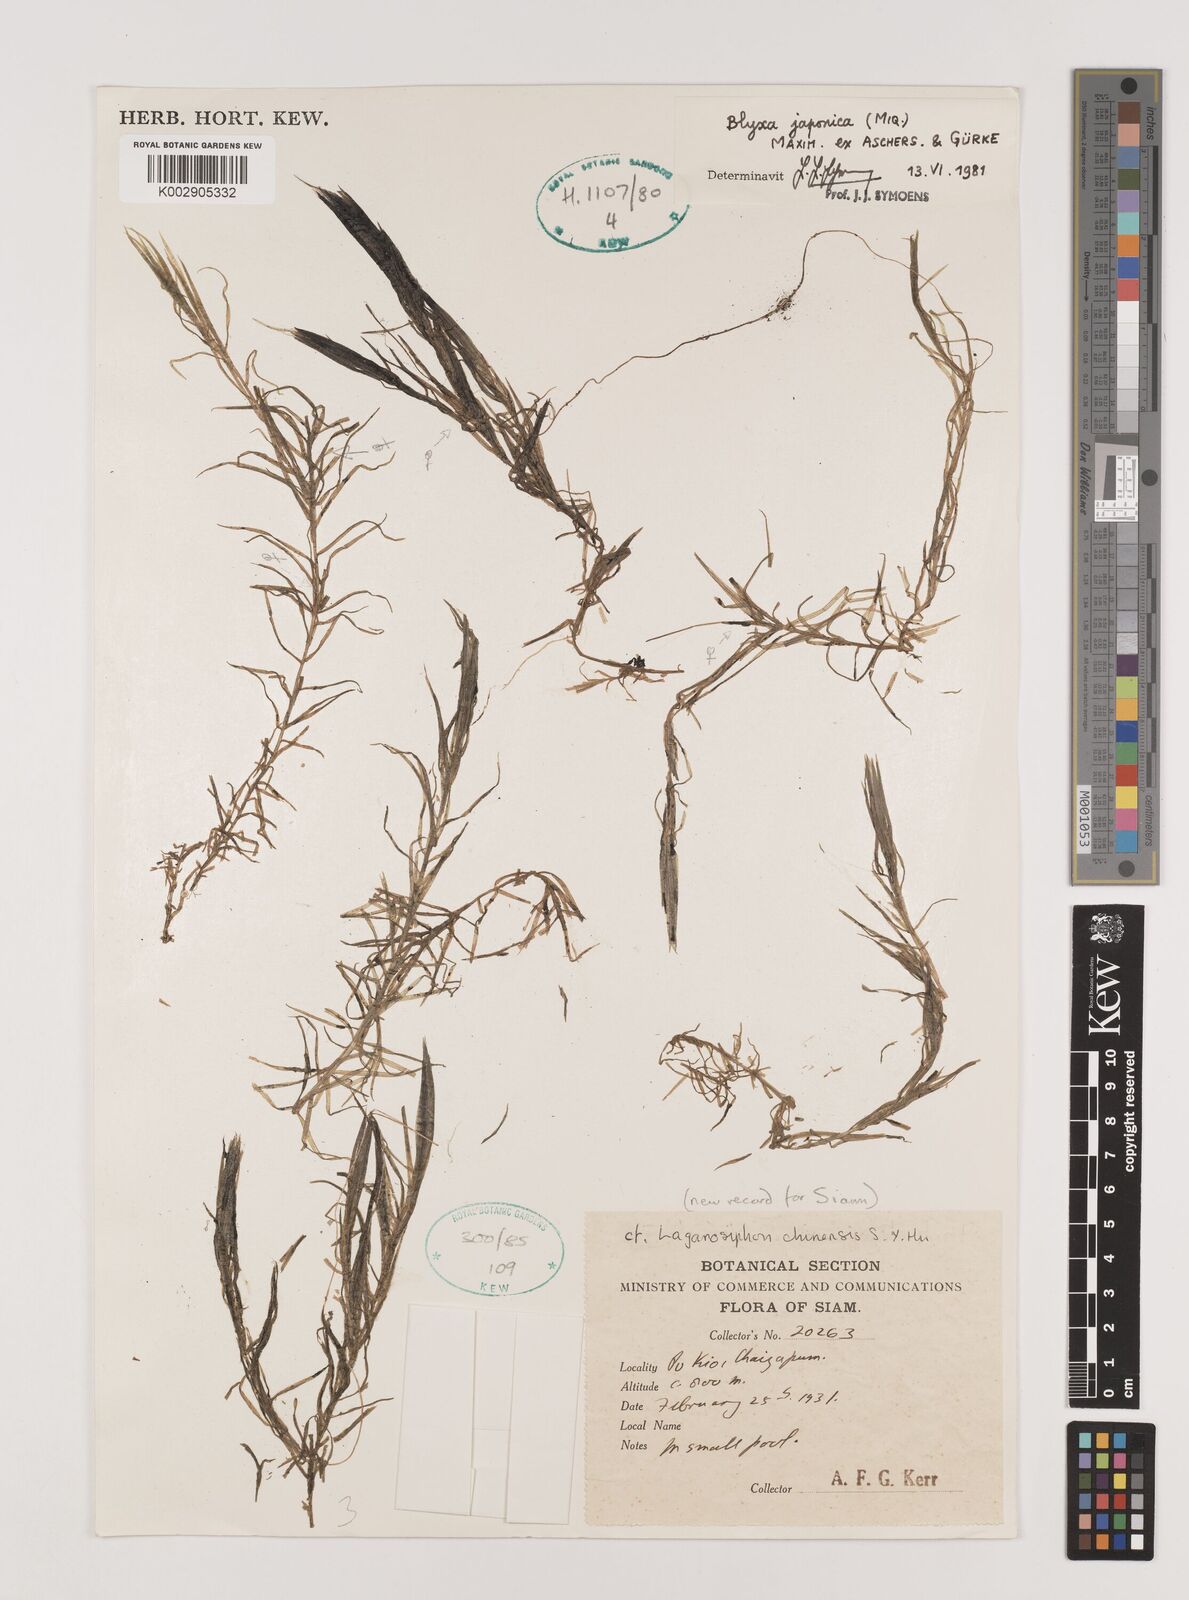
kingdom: Plantae
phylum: Tracheophyta
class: Liliopsida
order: Alismatales
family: Hydrocharitaceae
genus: Blyxa
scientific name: Blyxa japonica
